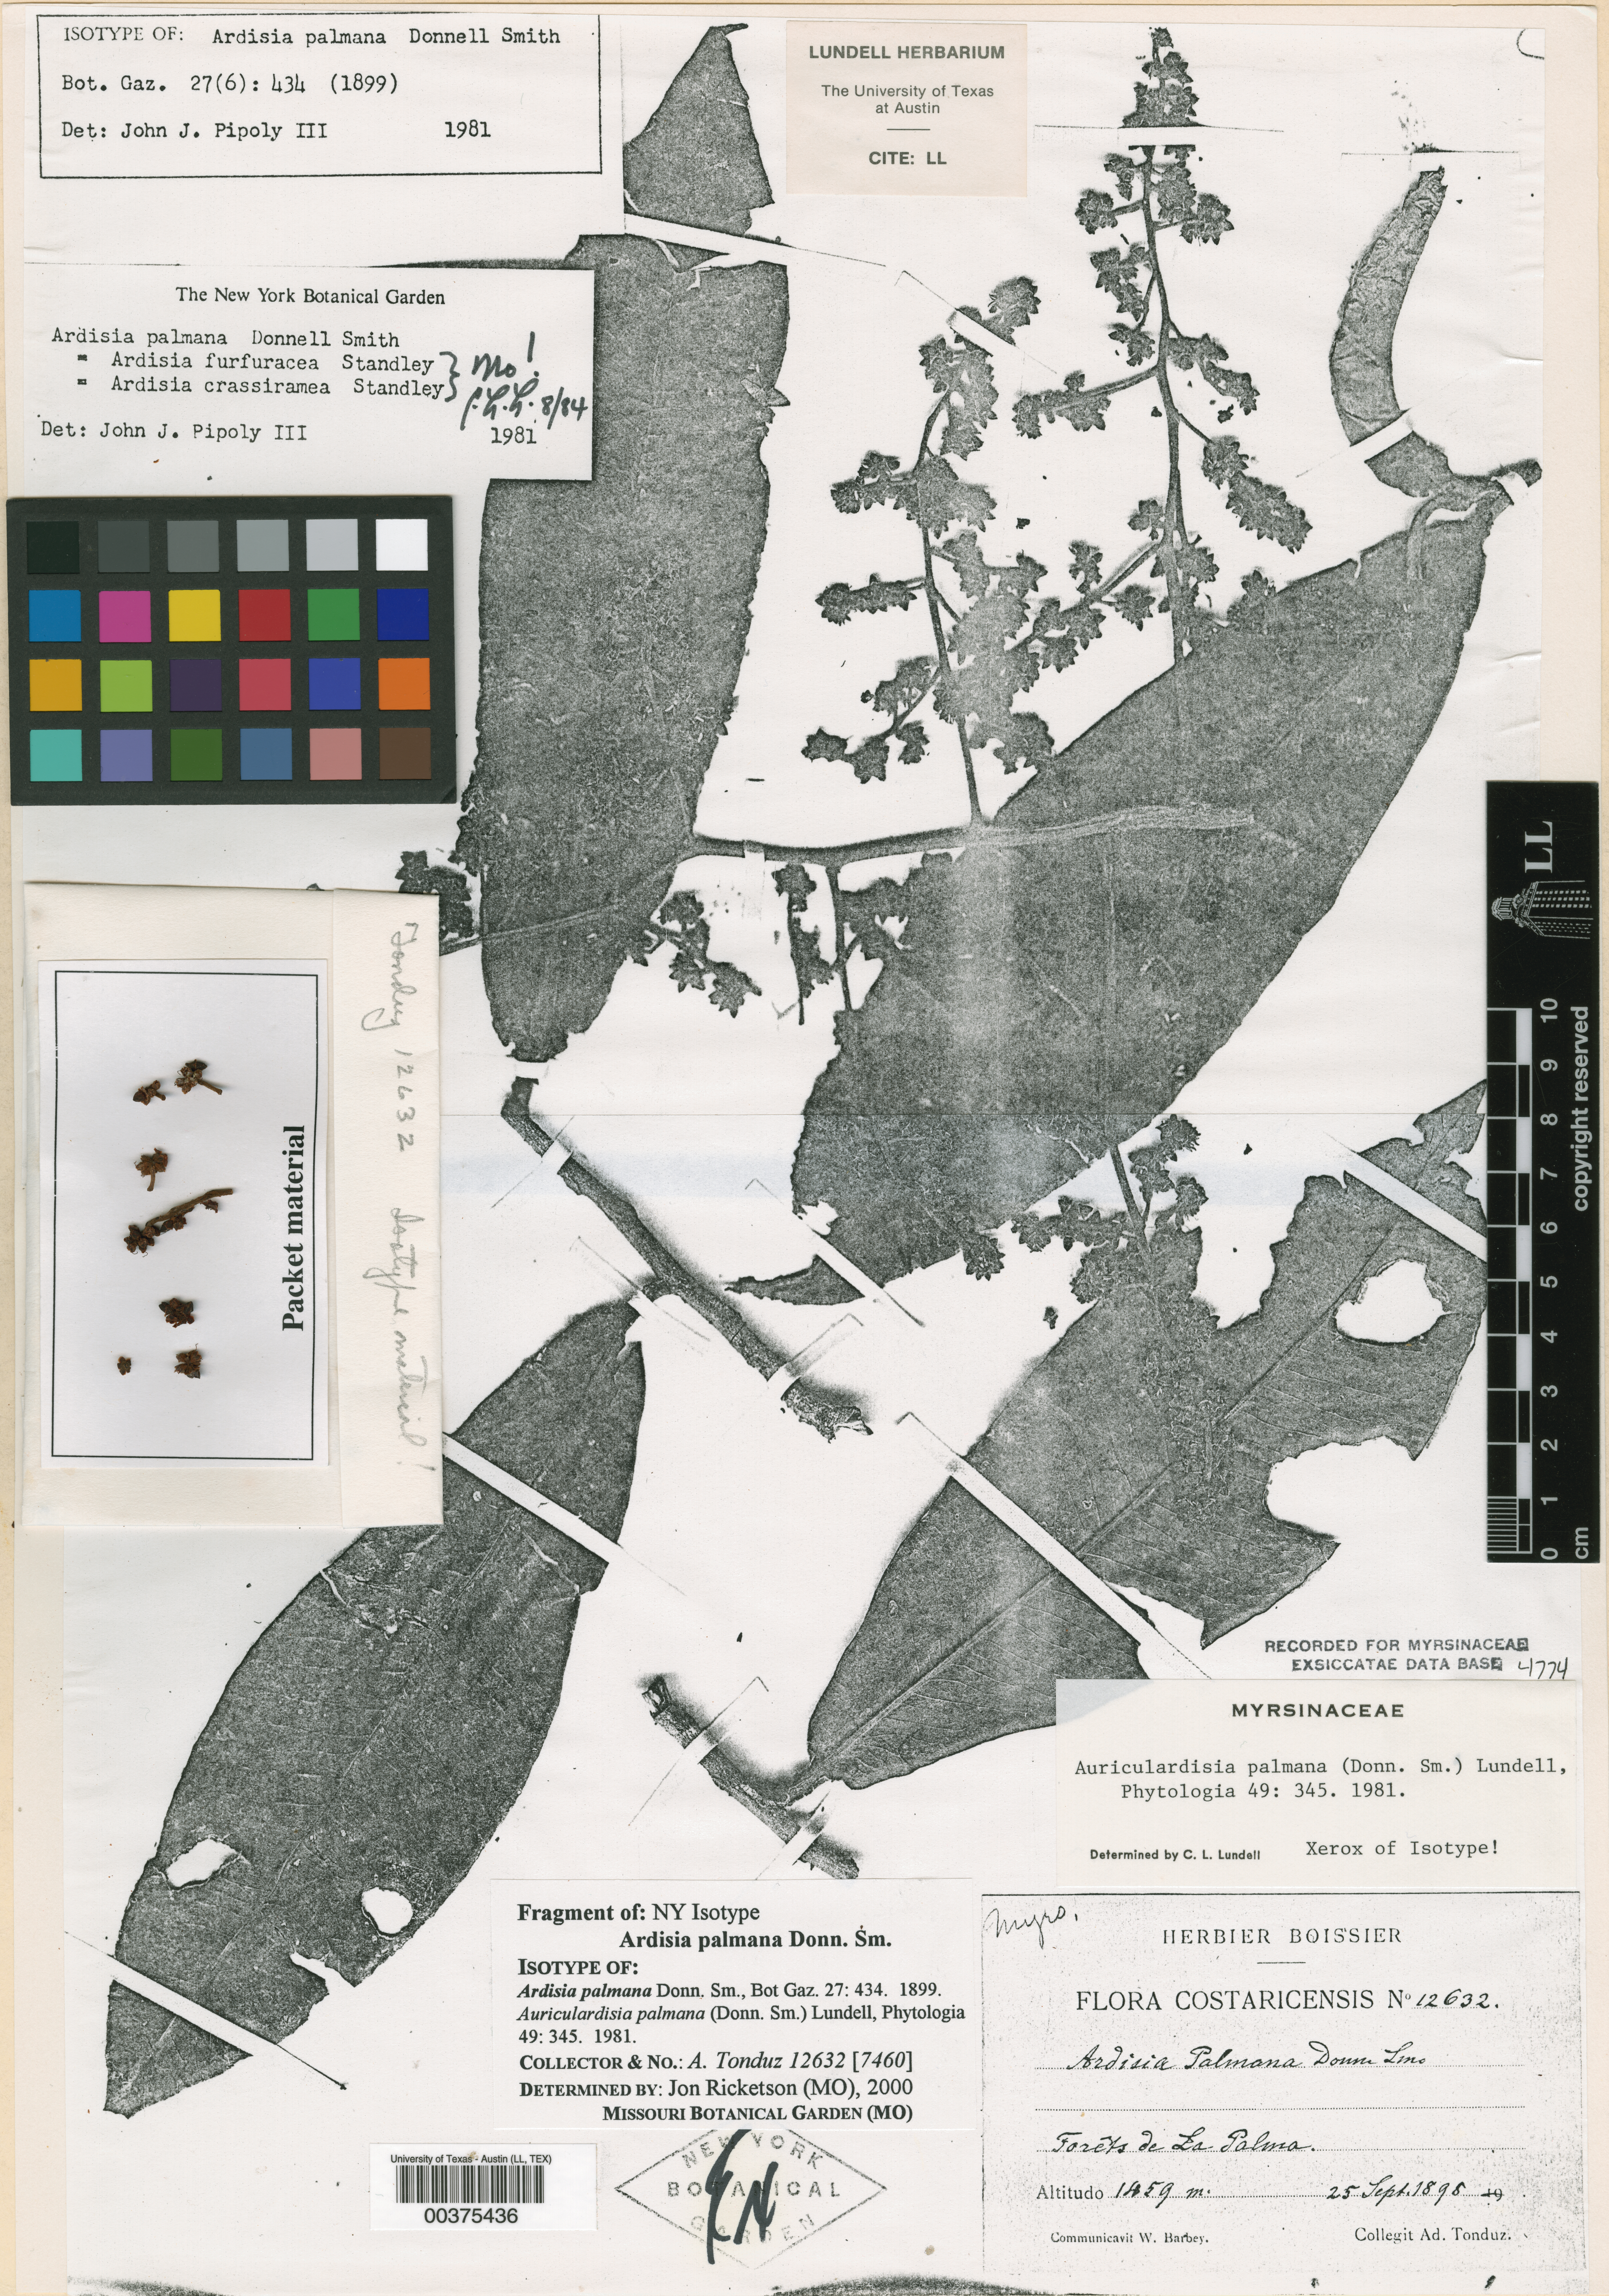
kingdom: Plantae
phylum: Tracheophyta
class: Magnoliopsida
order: Ericales
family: Primulaceae
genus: Ardisia
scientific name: Ardisia palmana
